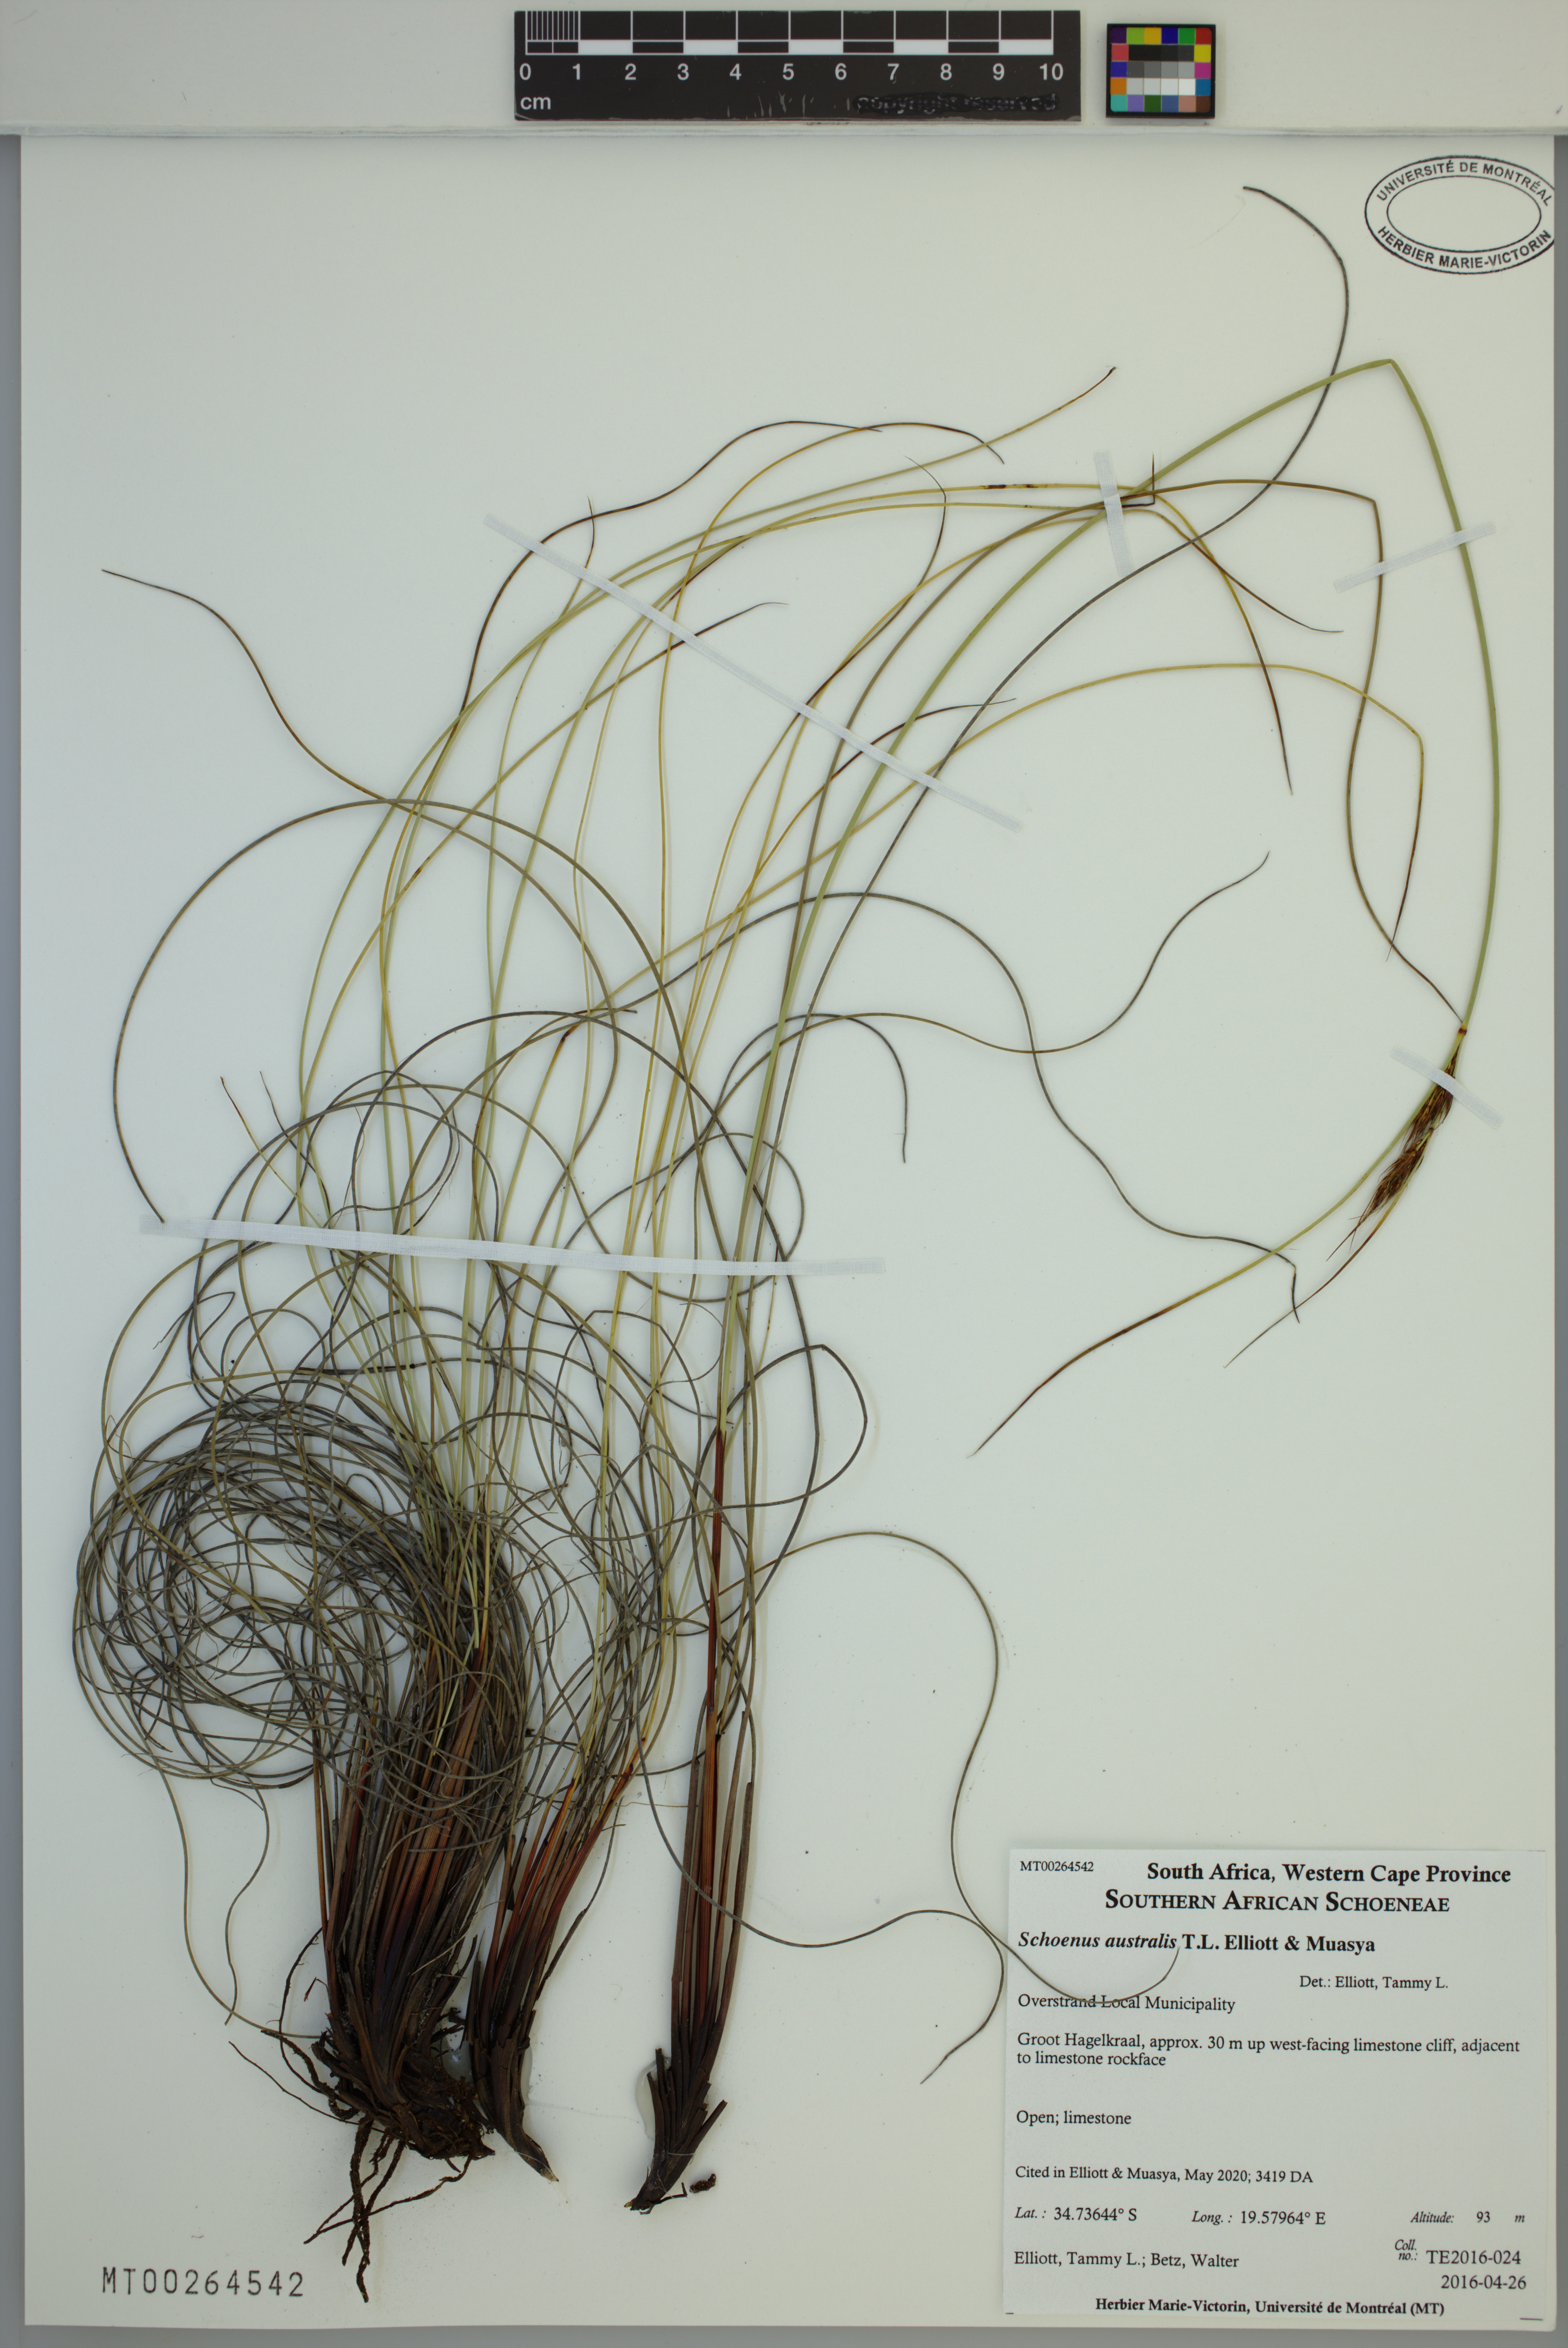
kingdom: Plantae
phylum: Tracheophyta
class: Liliopsida
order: Poales
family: Cyperaceae
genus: Schoenus
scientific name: Schoenus australis
